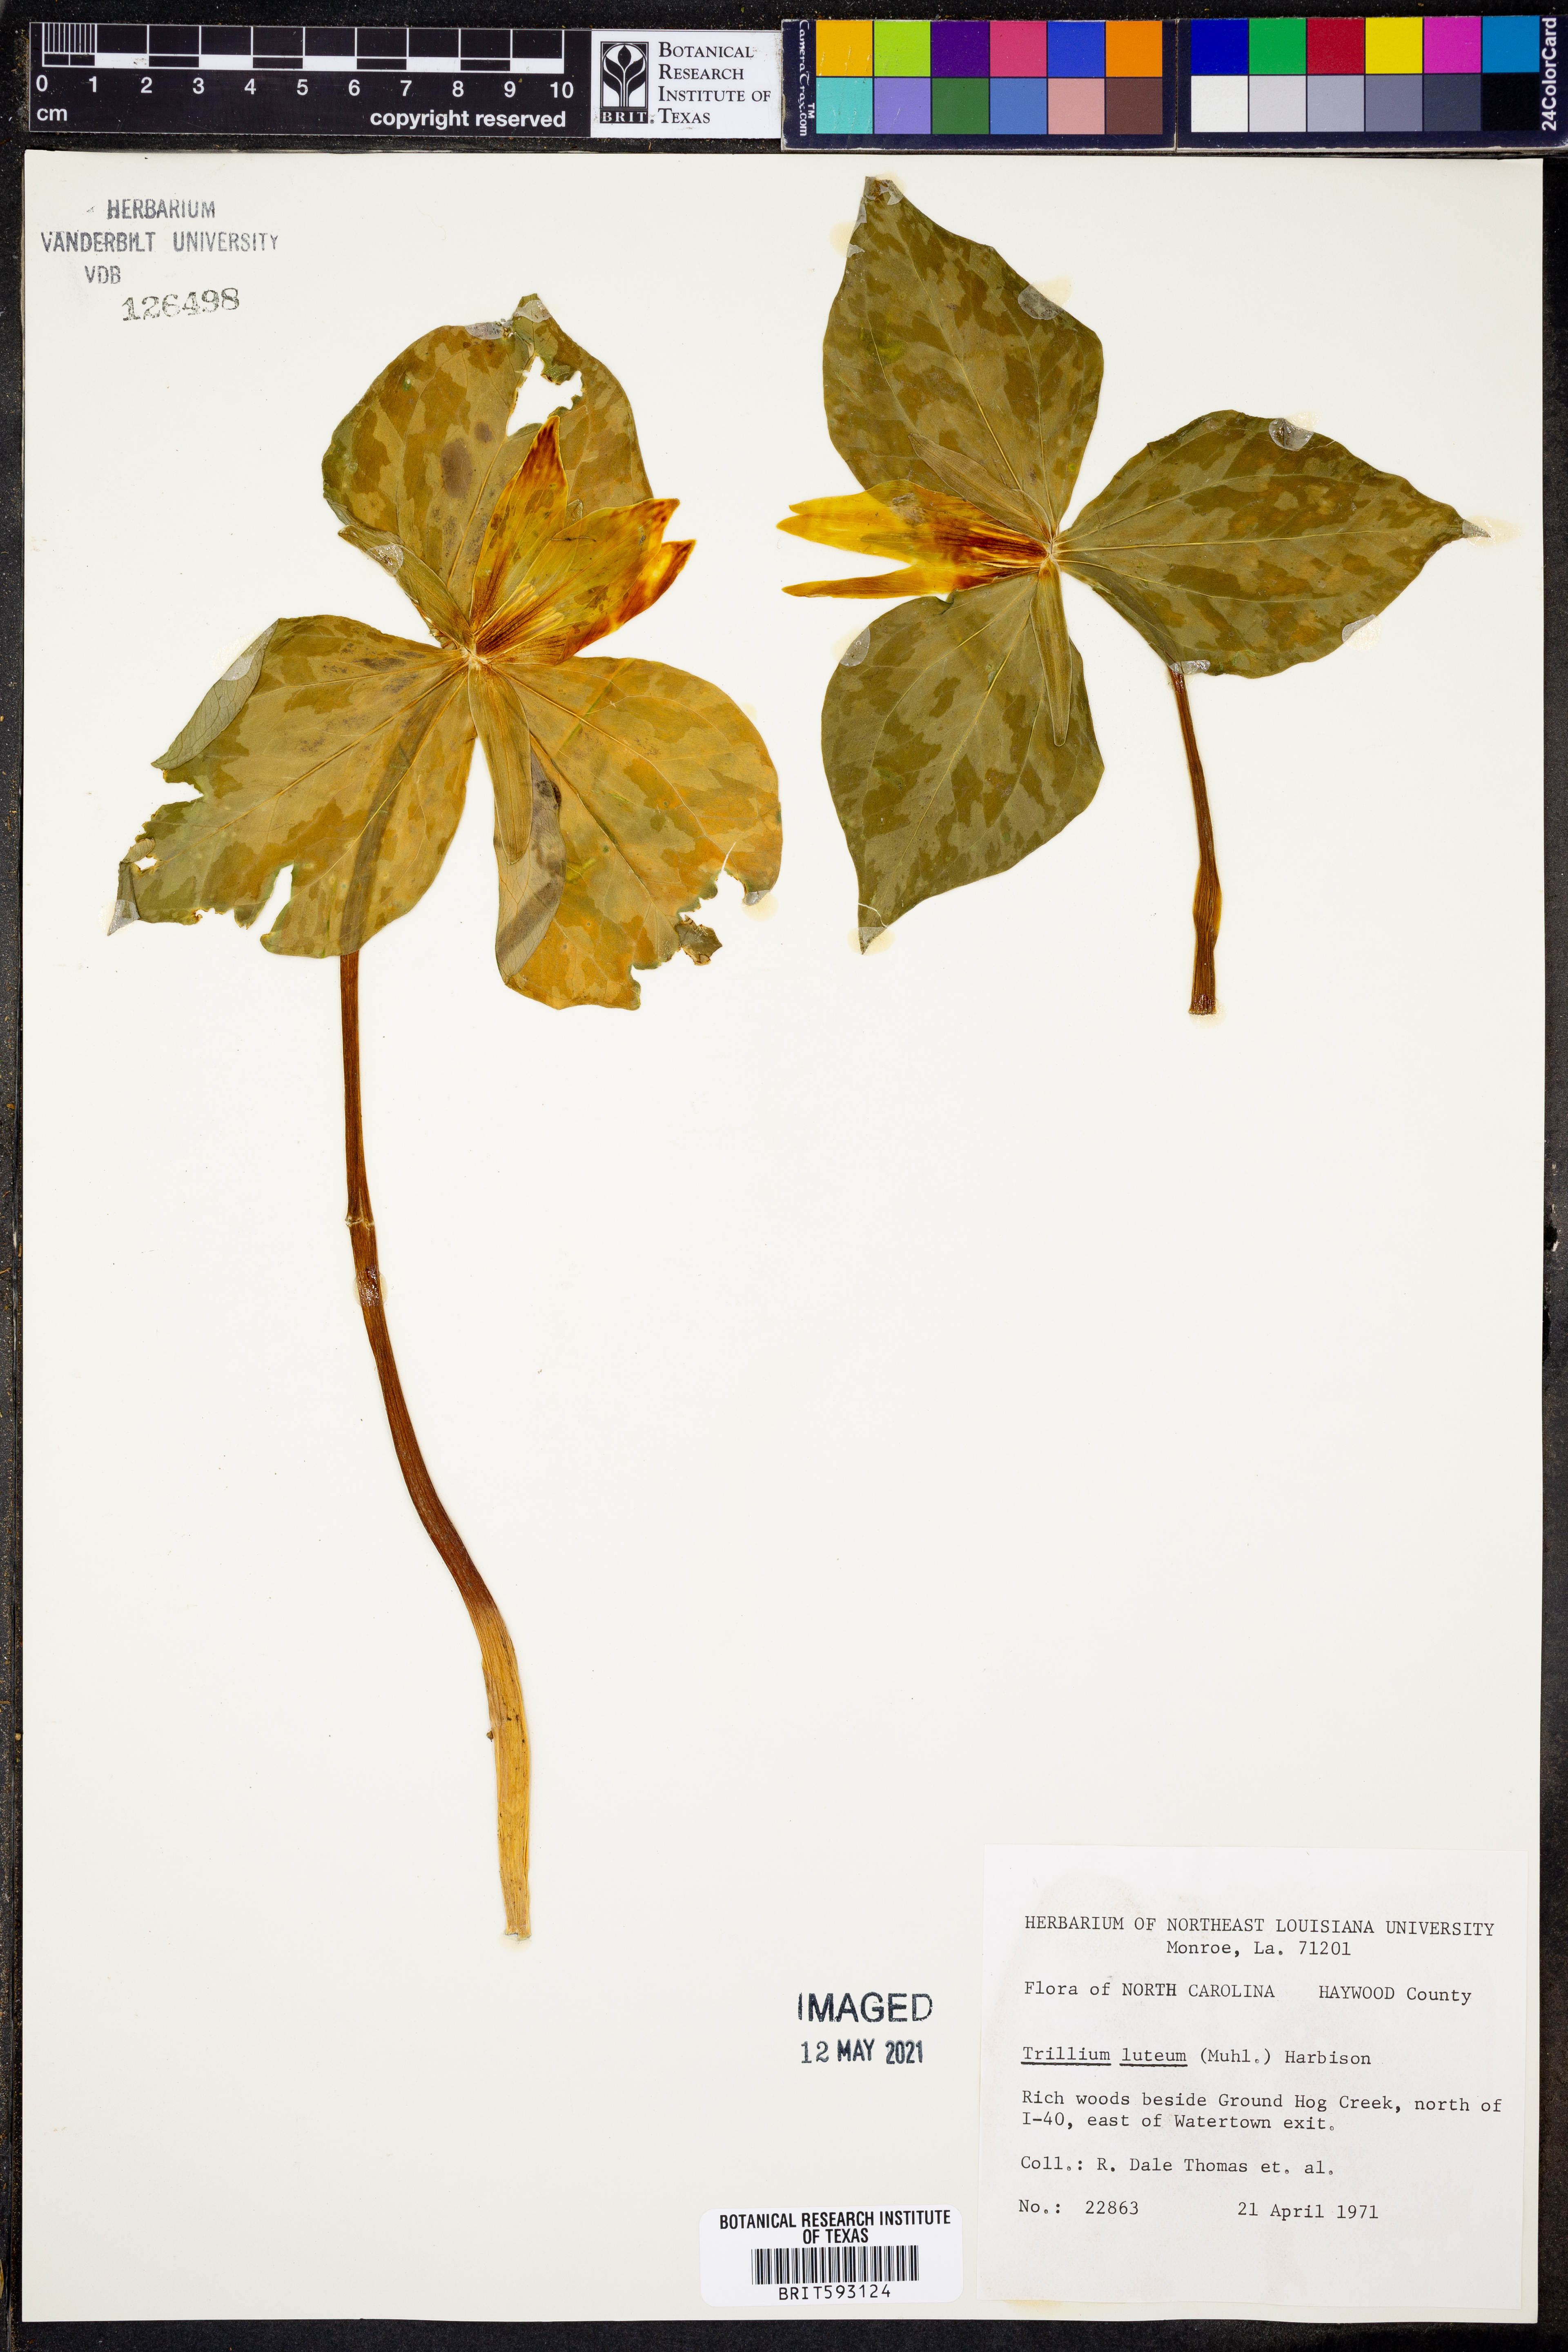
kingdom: Plantae
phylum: Tracheophyta
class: Liliopsida
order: Liliales
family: Melanthiaceae
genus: Trillium
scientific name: Trillium luteum
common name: Wax trillium
